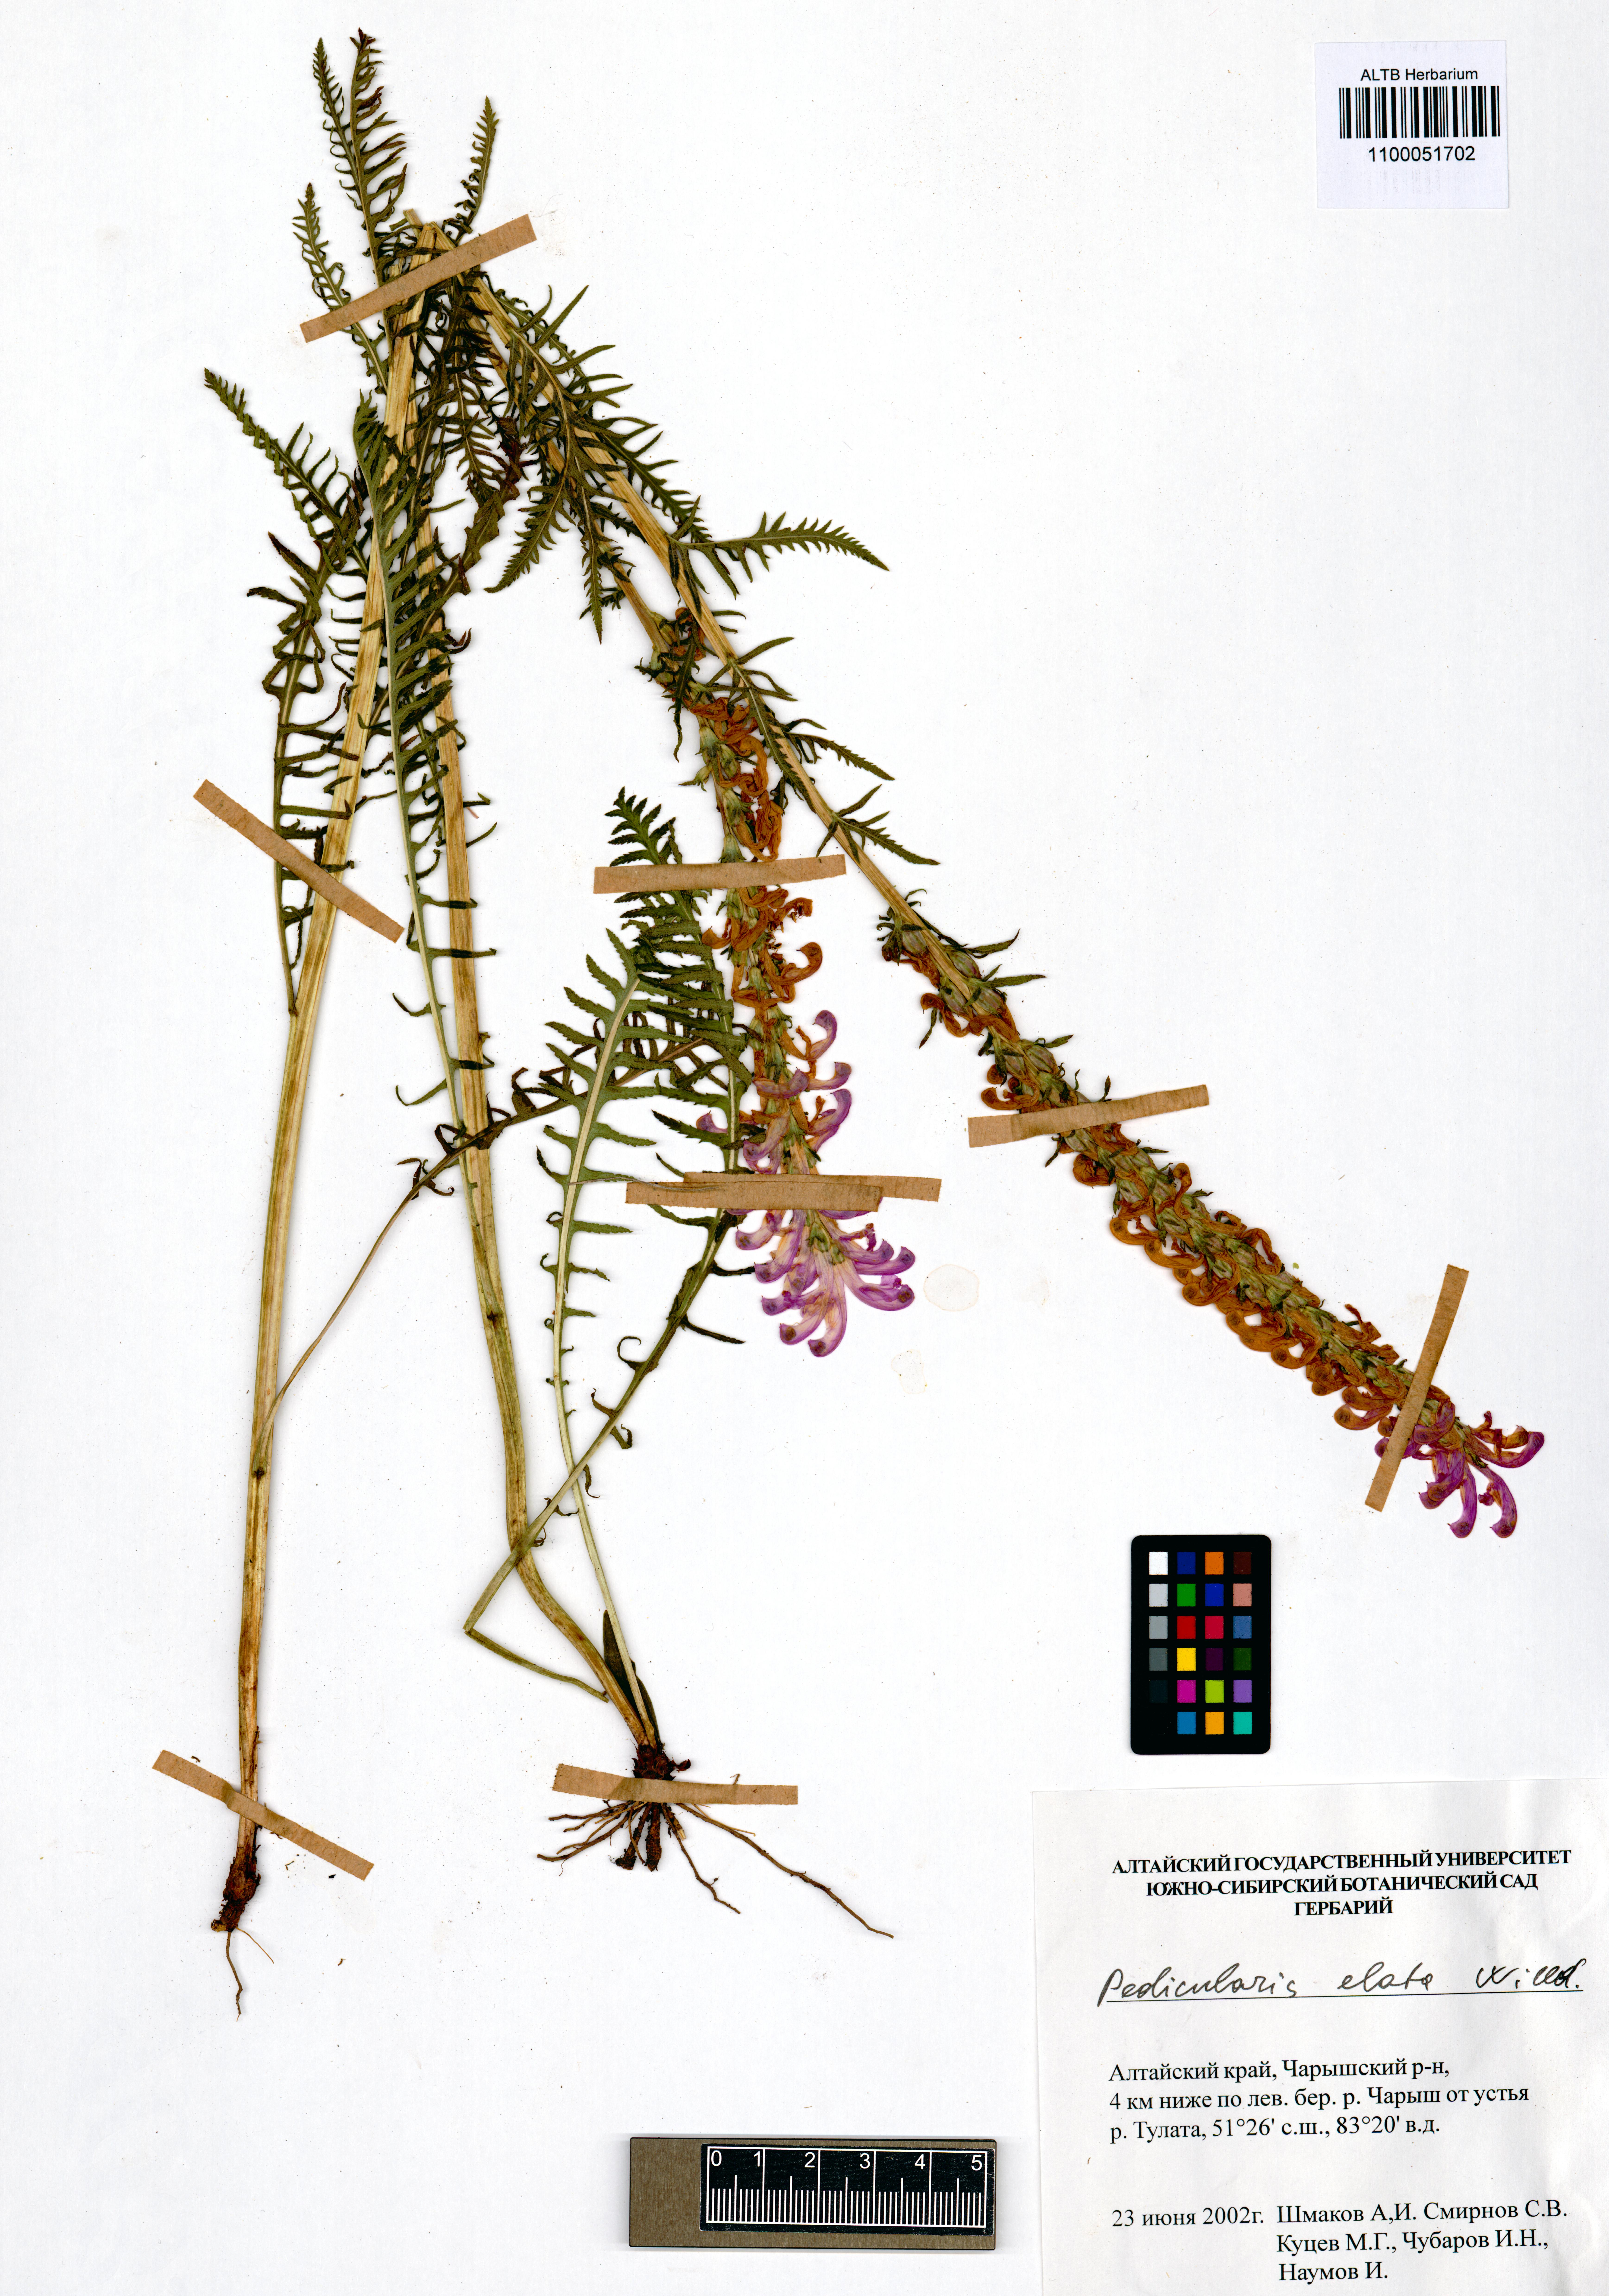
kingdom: Plantae
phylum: Tracheophyta
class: Magnoliopsida
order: Lamiales
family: Orobanchaceae
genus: Pedicularis
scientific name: Pedicularis elata
